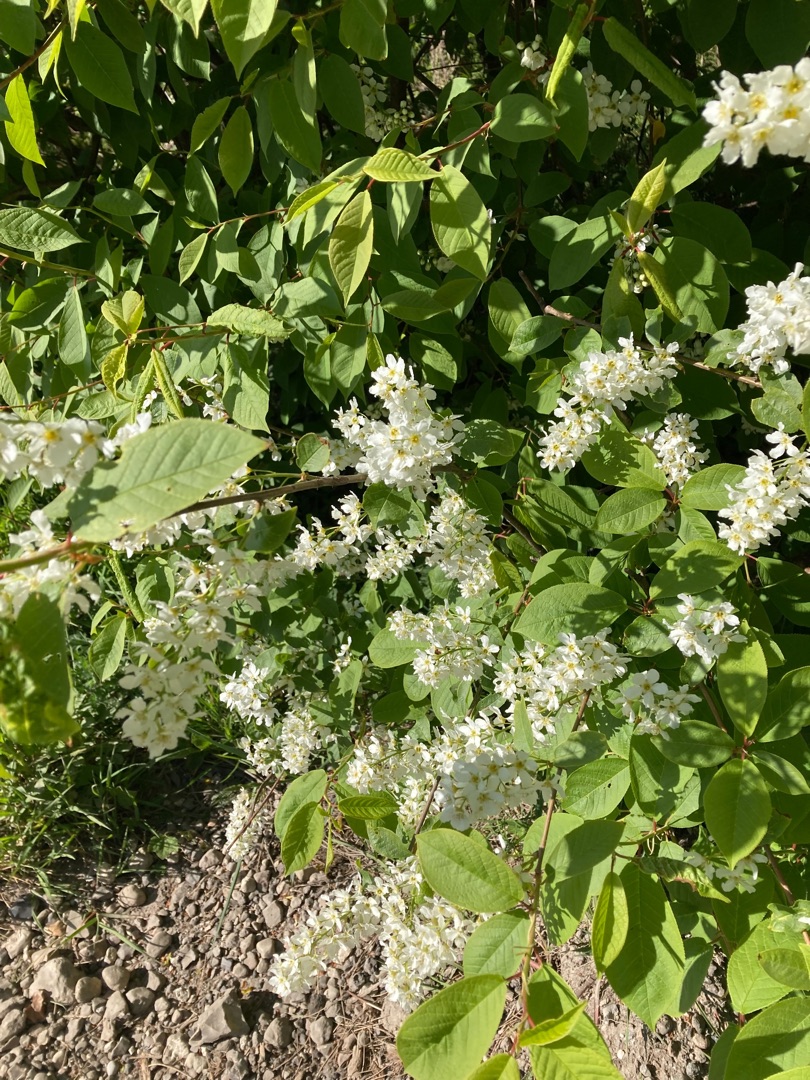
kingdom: Plantae
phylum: Tracheophyta
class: Magnoliopsida
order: Rosales
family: Rosaceae
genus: Prunus
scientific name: Prunus padus
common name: Almindelig hæg
